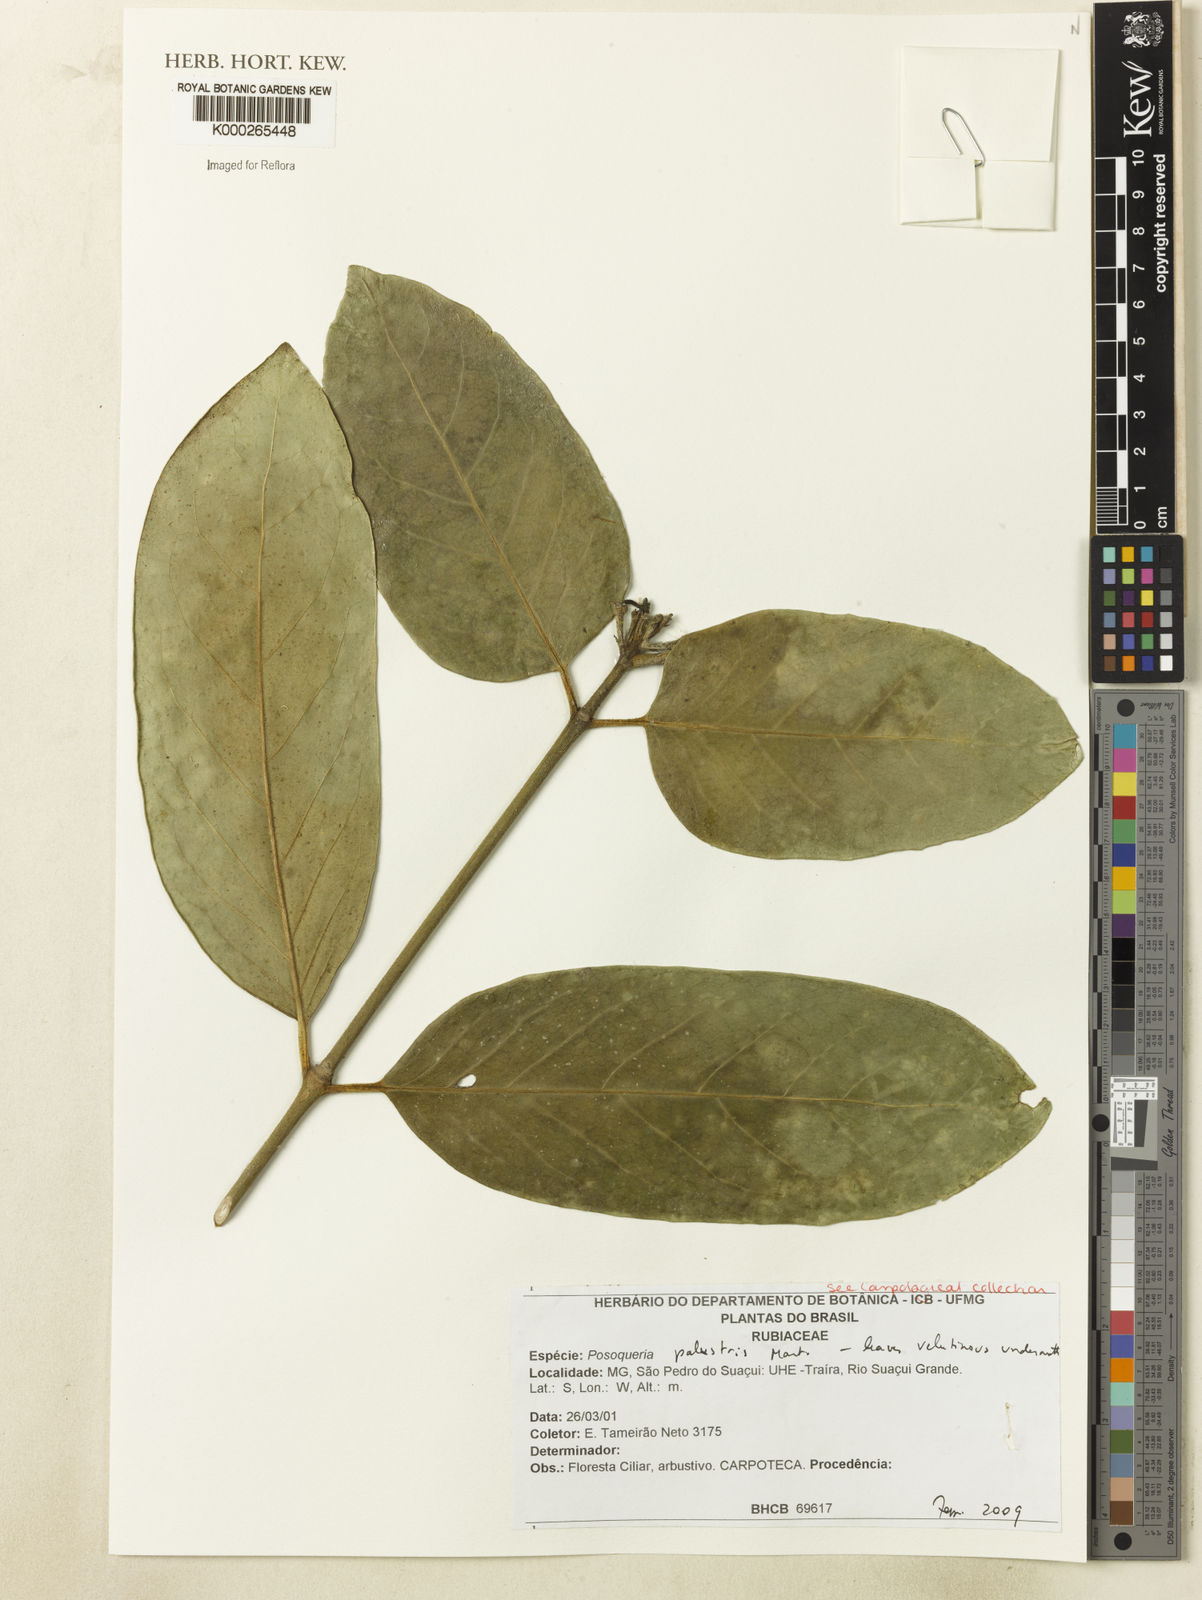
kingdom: Plantae
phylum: Tracheophyta
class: Magnoliopsida
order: Gentianales
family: Rubiaceae
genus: Posoqueria
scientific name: Posoqueria palustris
